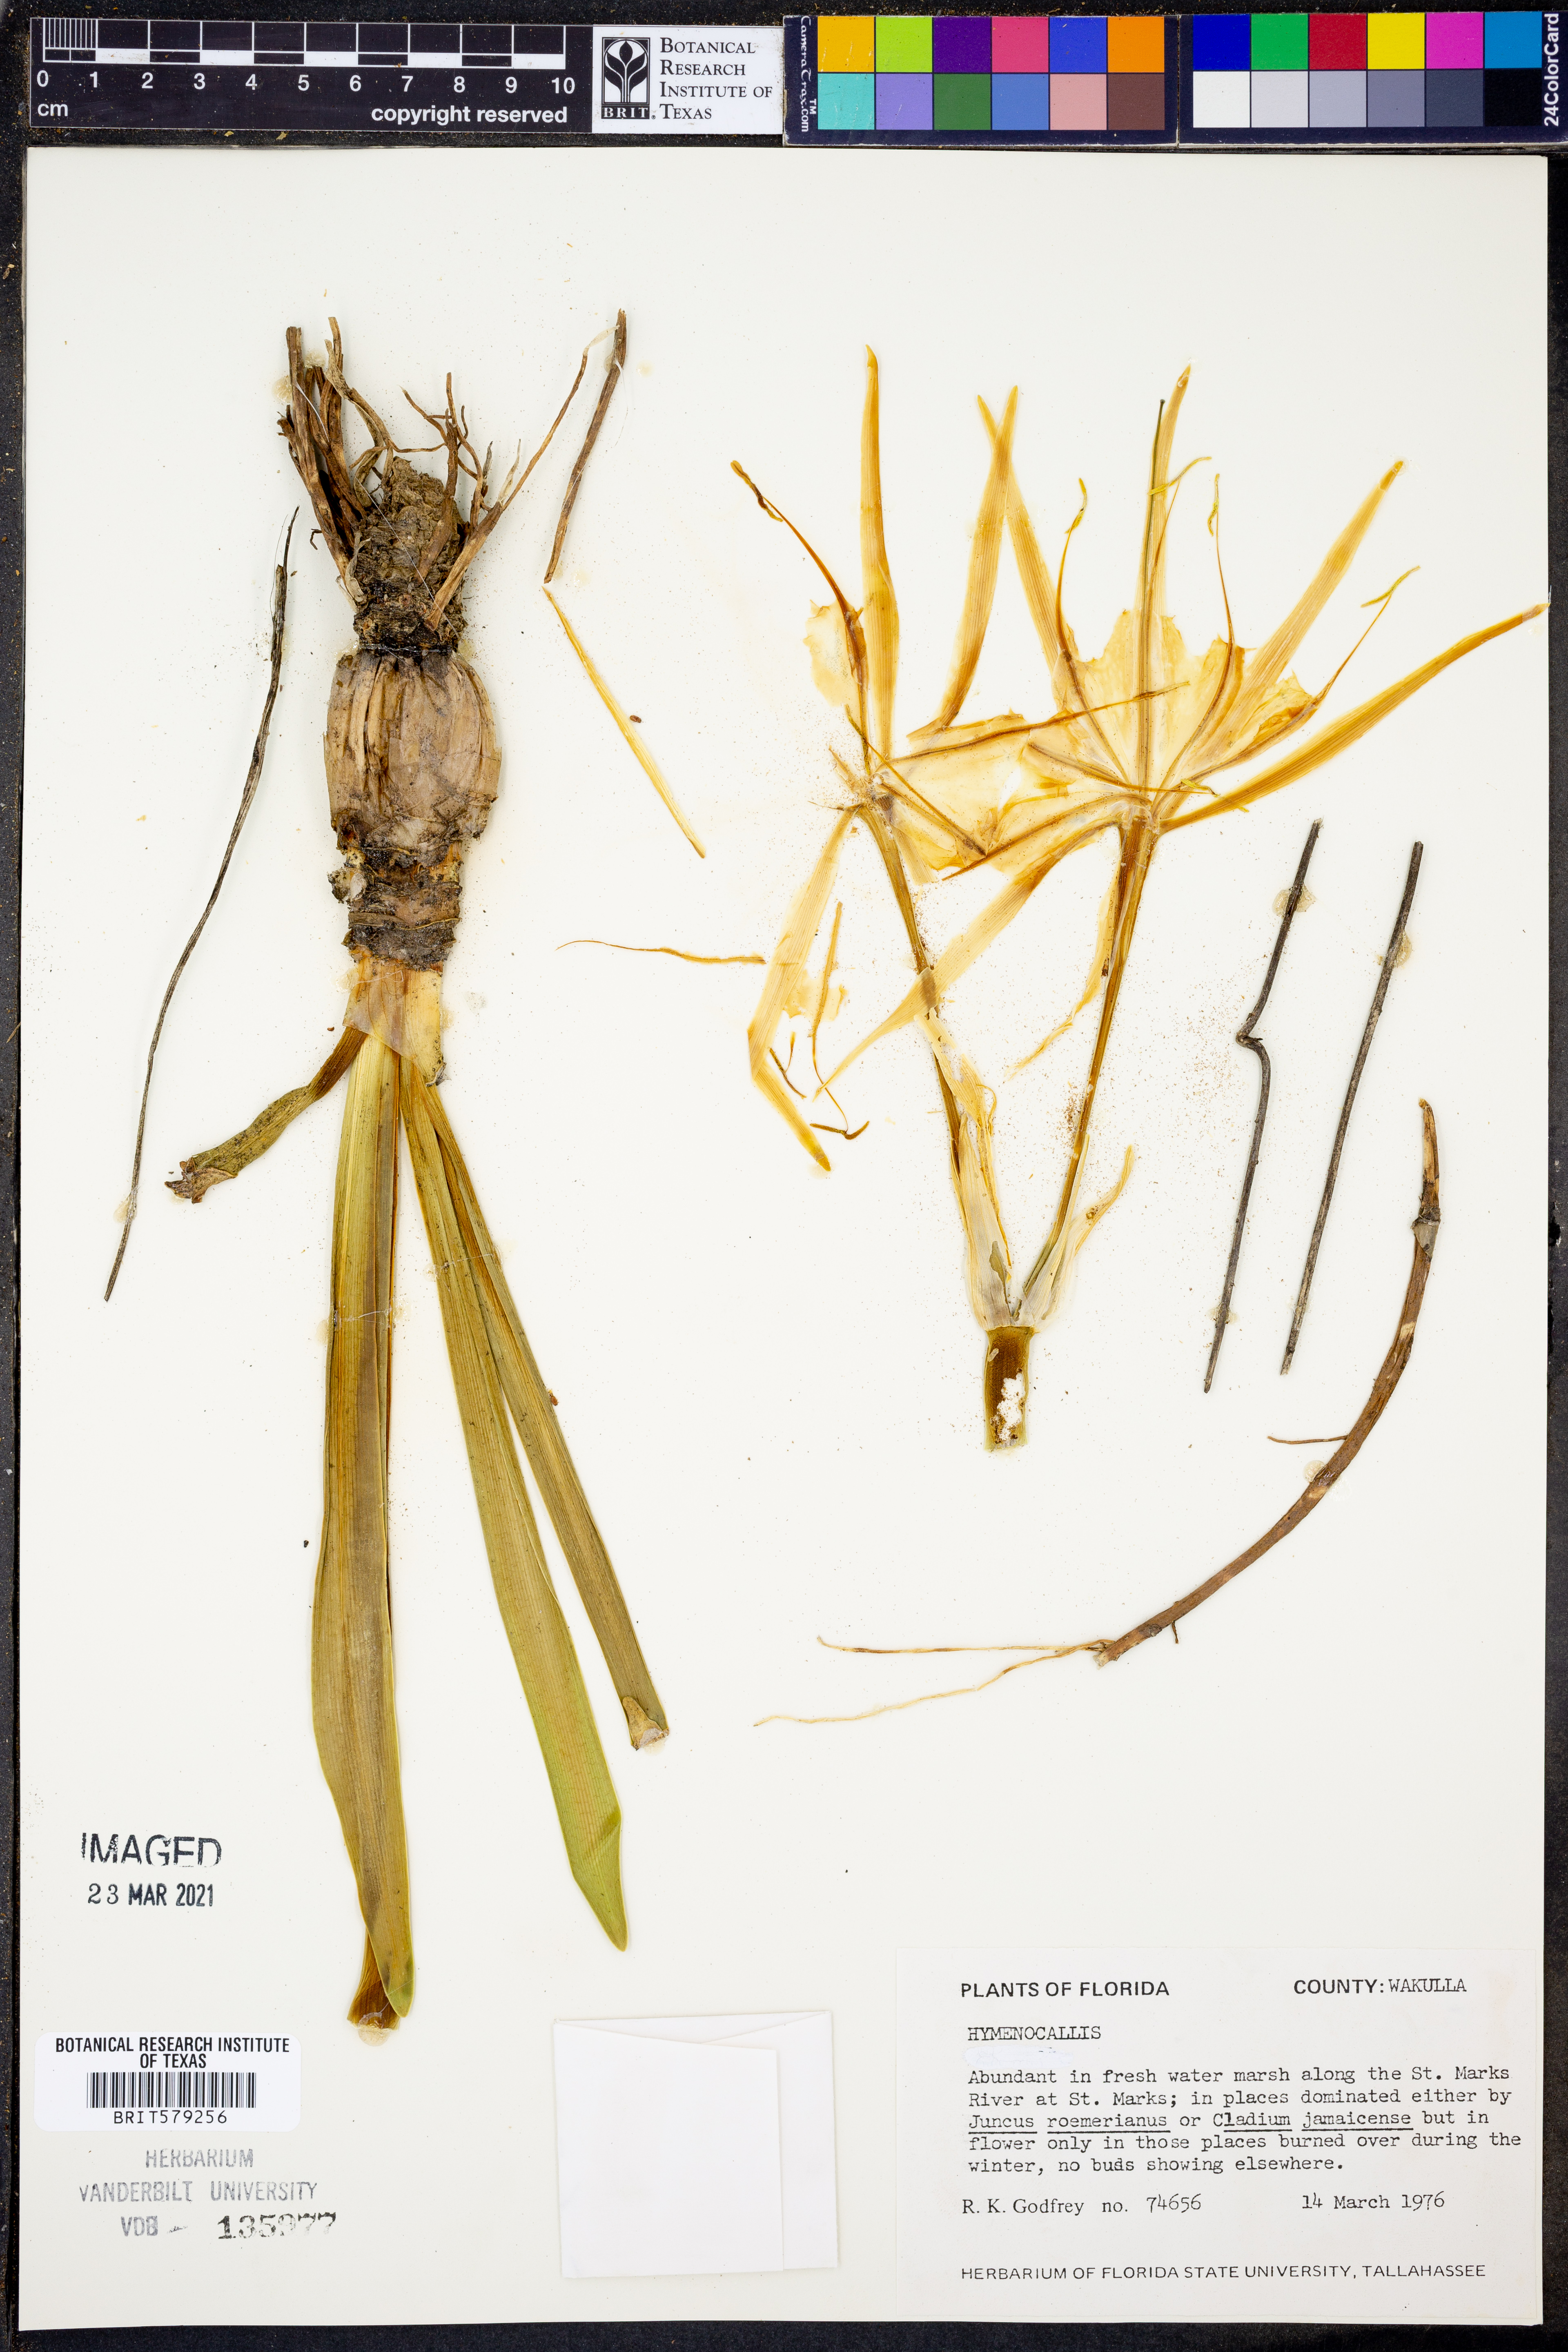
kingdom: Plantae
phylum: Tracheophyta
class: Liliopsida
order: Asparagales
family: Amaryllidaceae
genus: Hymenocallis
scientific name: Hymenocallis
